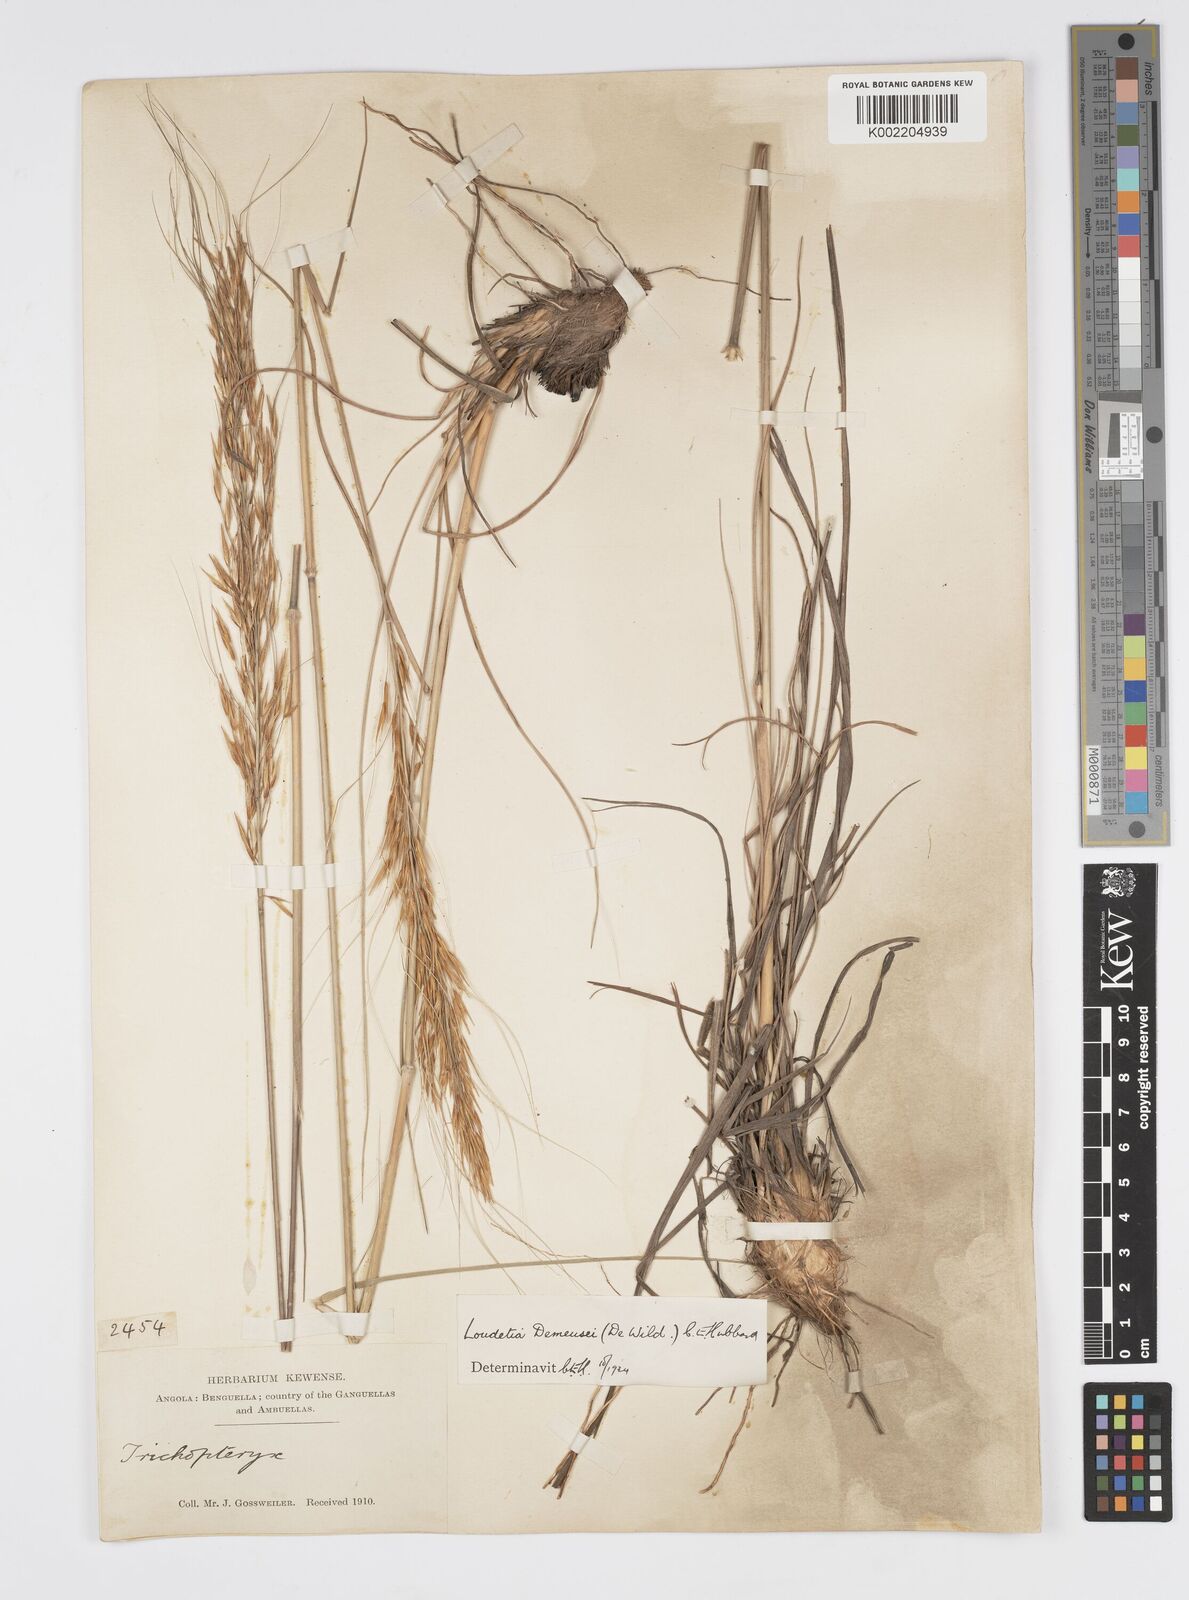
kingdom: Plantae
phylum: Tracheophyta
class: Liliopsida
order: Poales
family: Poaceae
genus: Loudetia
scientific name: Loudetia lanata
